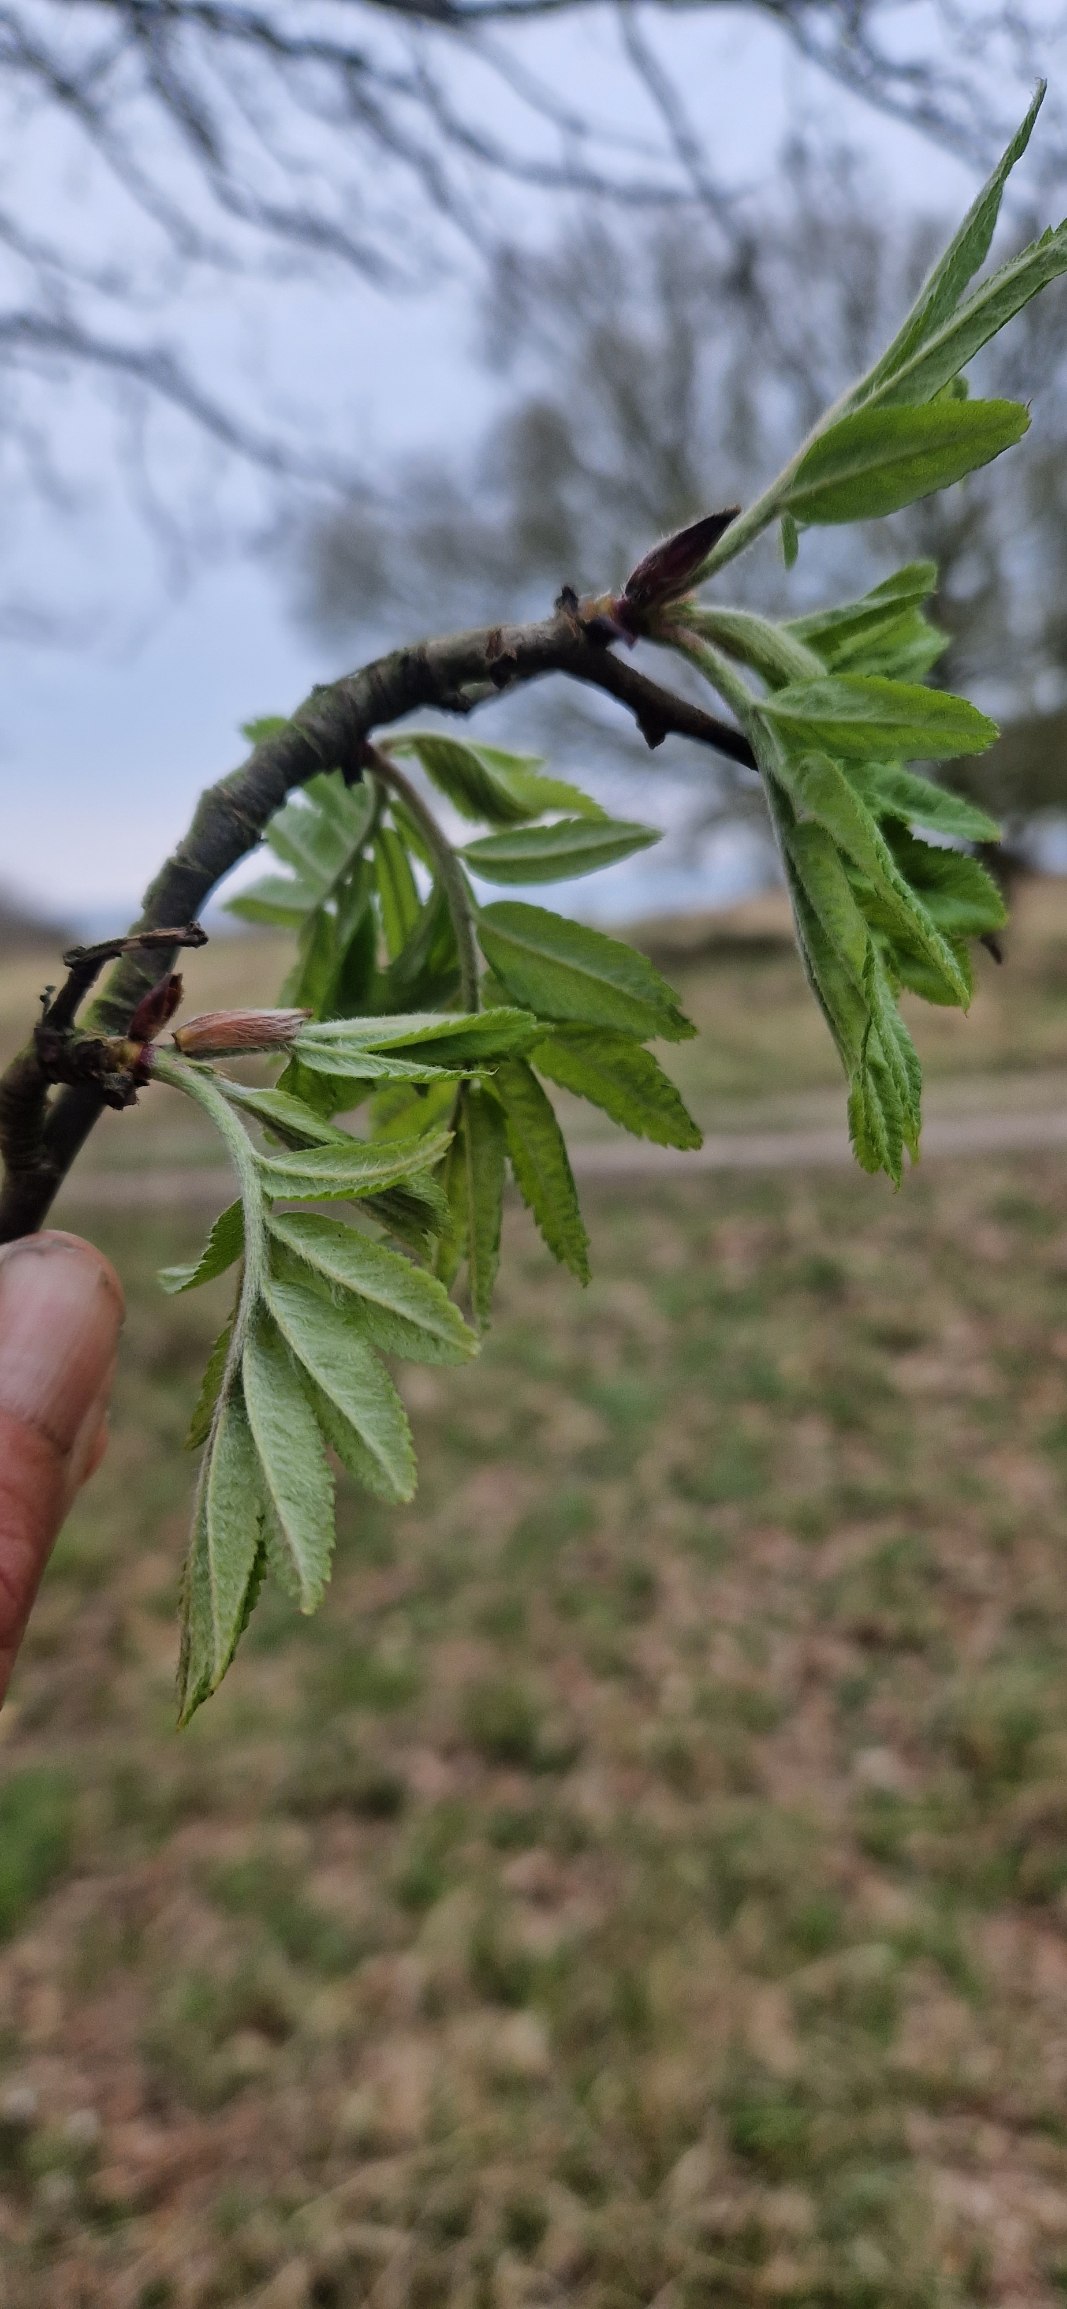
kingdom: Plantae
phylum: Tracheophyta
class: Magnoliopsida
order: Rosales
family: Rosaceae
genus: Sorbus
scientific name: Sorbus aucuparia
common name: Almindelig røn
